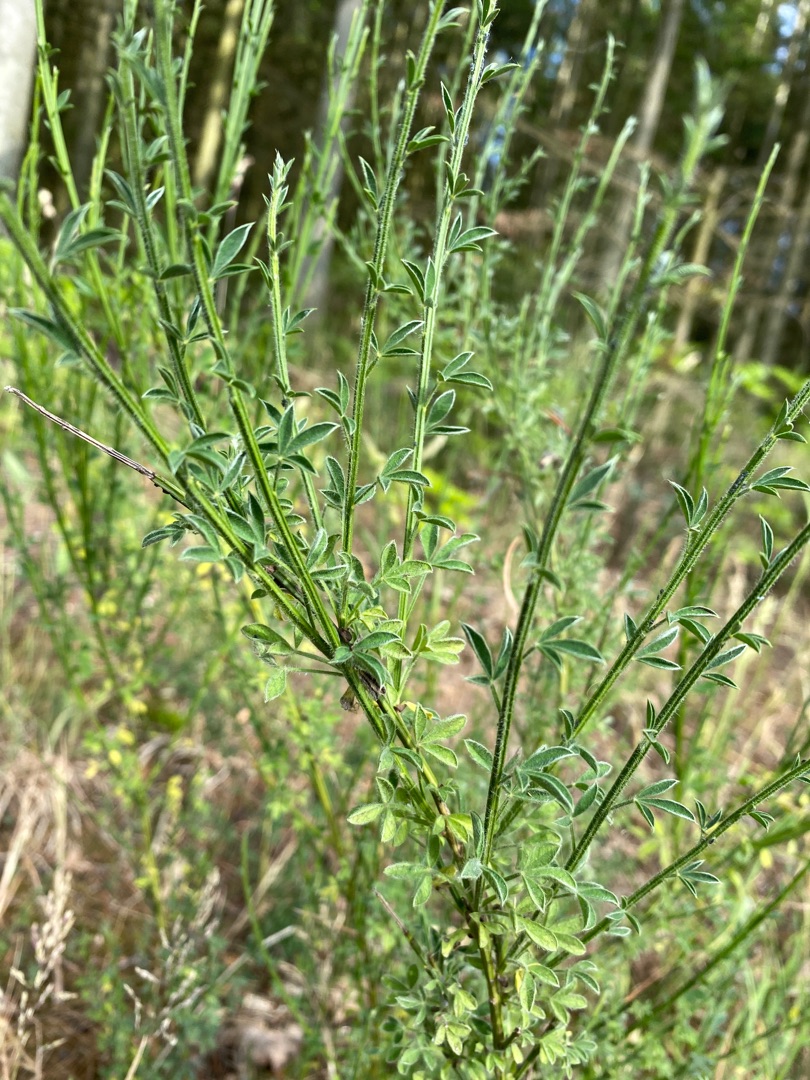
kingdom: Plantae
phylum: Tracheophyta
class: Magnoliopsida
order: Fabales
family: Fabaceae
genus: Cytisus
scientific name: Cytisus scoparius
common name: Almindelig gyvel
